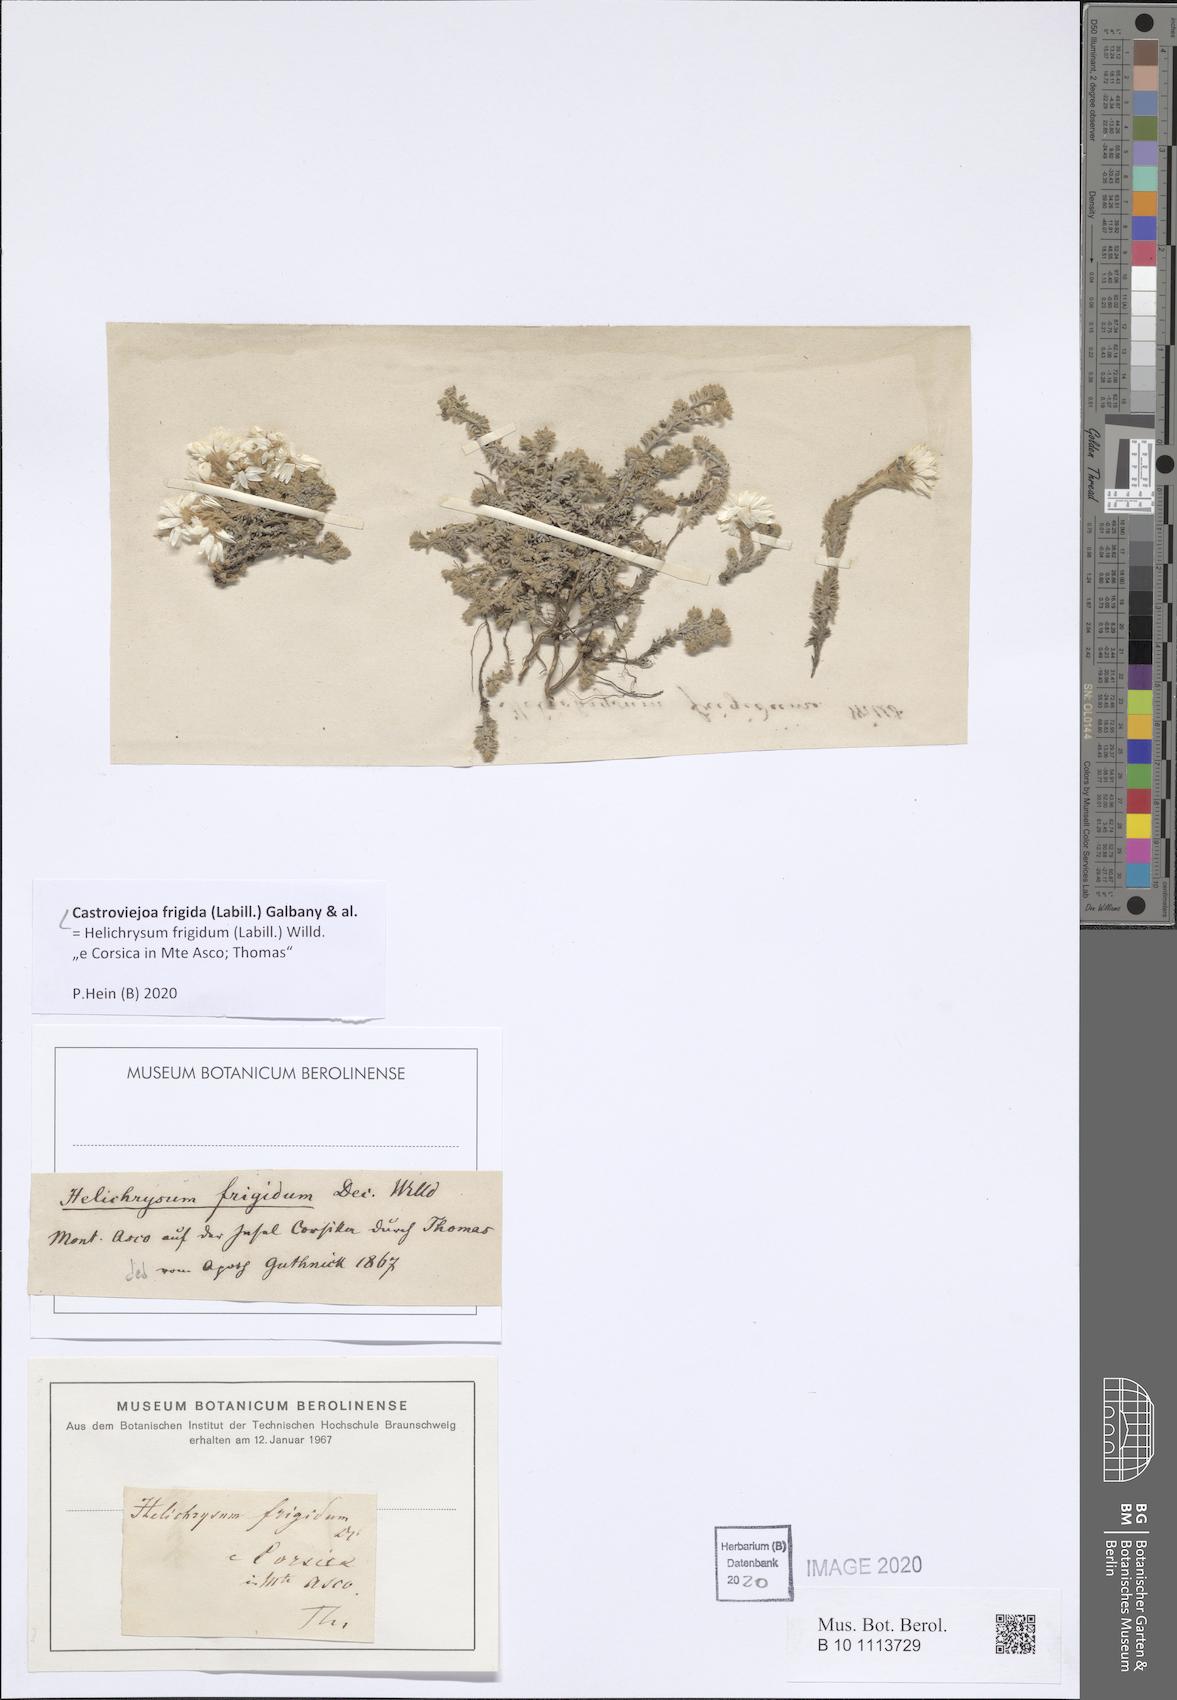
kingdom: Plantae
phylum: Tracheophyta
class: Magnoliopsida
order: Asterales
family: Asteraceae
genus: Castroviejoa
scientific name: Castroviejoa frigida
